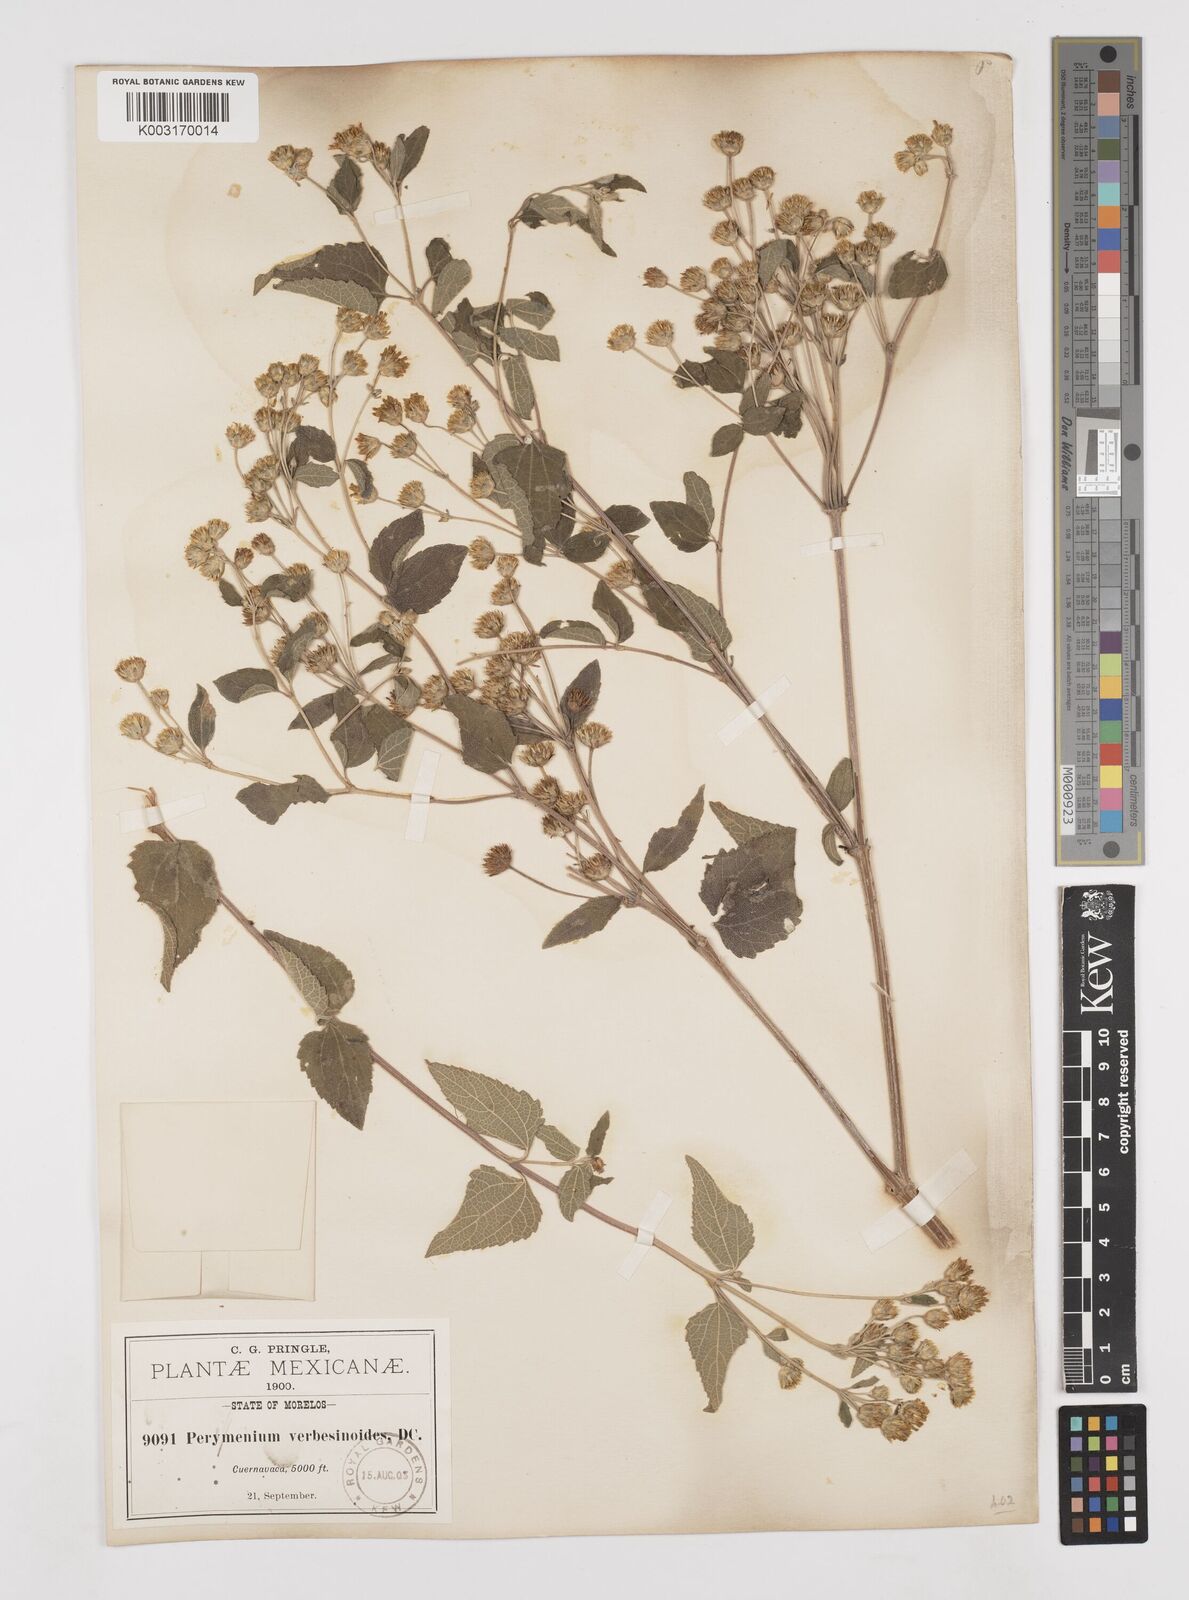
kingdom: Plantae
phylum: Tracheophyta
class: Magnoliopsida
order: Asterales
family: Asteraceae
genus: Perymenium
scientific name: Perymenium mendezii
